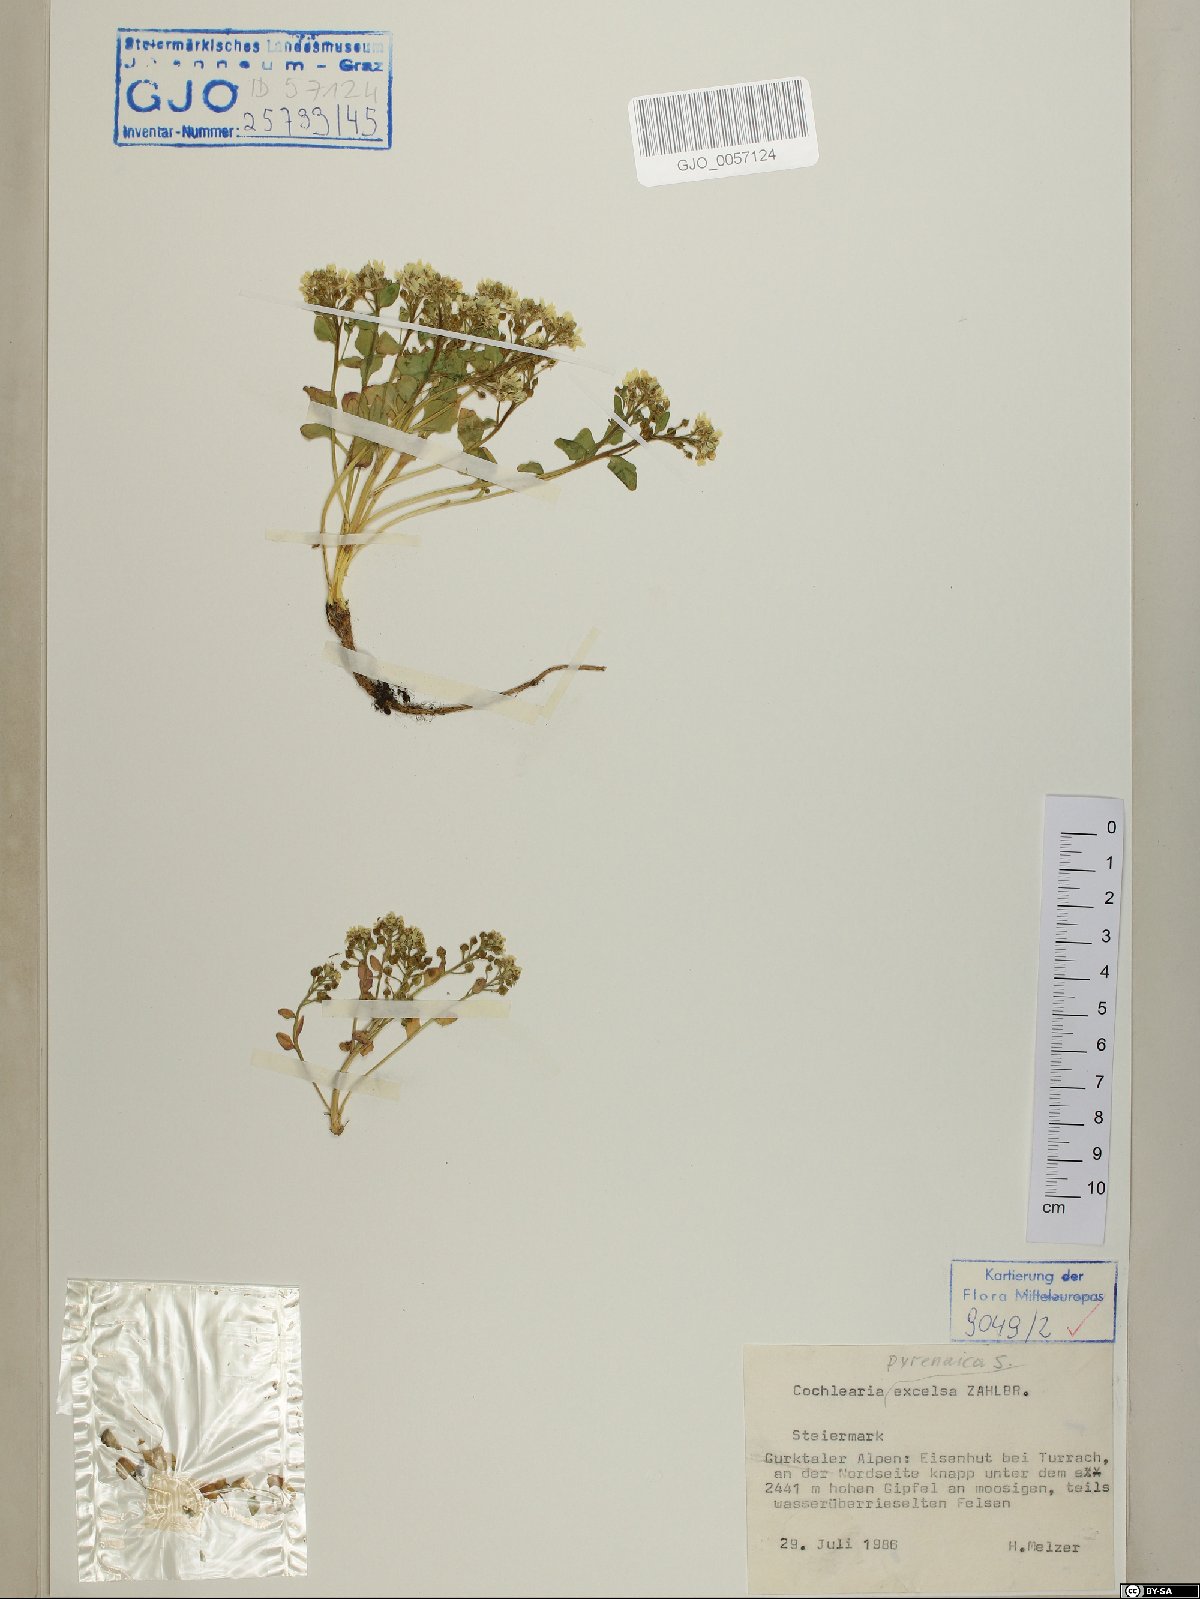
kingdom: Plantae
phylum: Tracheophyta
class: Magnoliopsida
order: Brassicales
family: Brassicaceae
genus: Cochlearia
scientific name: Cochlearia pyrenaica
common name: Upland scurvy-grass
